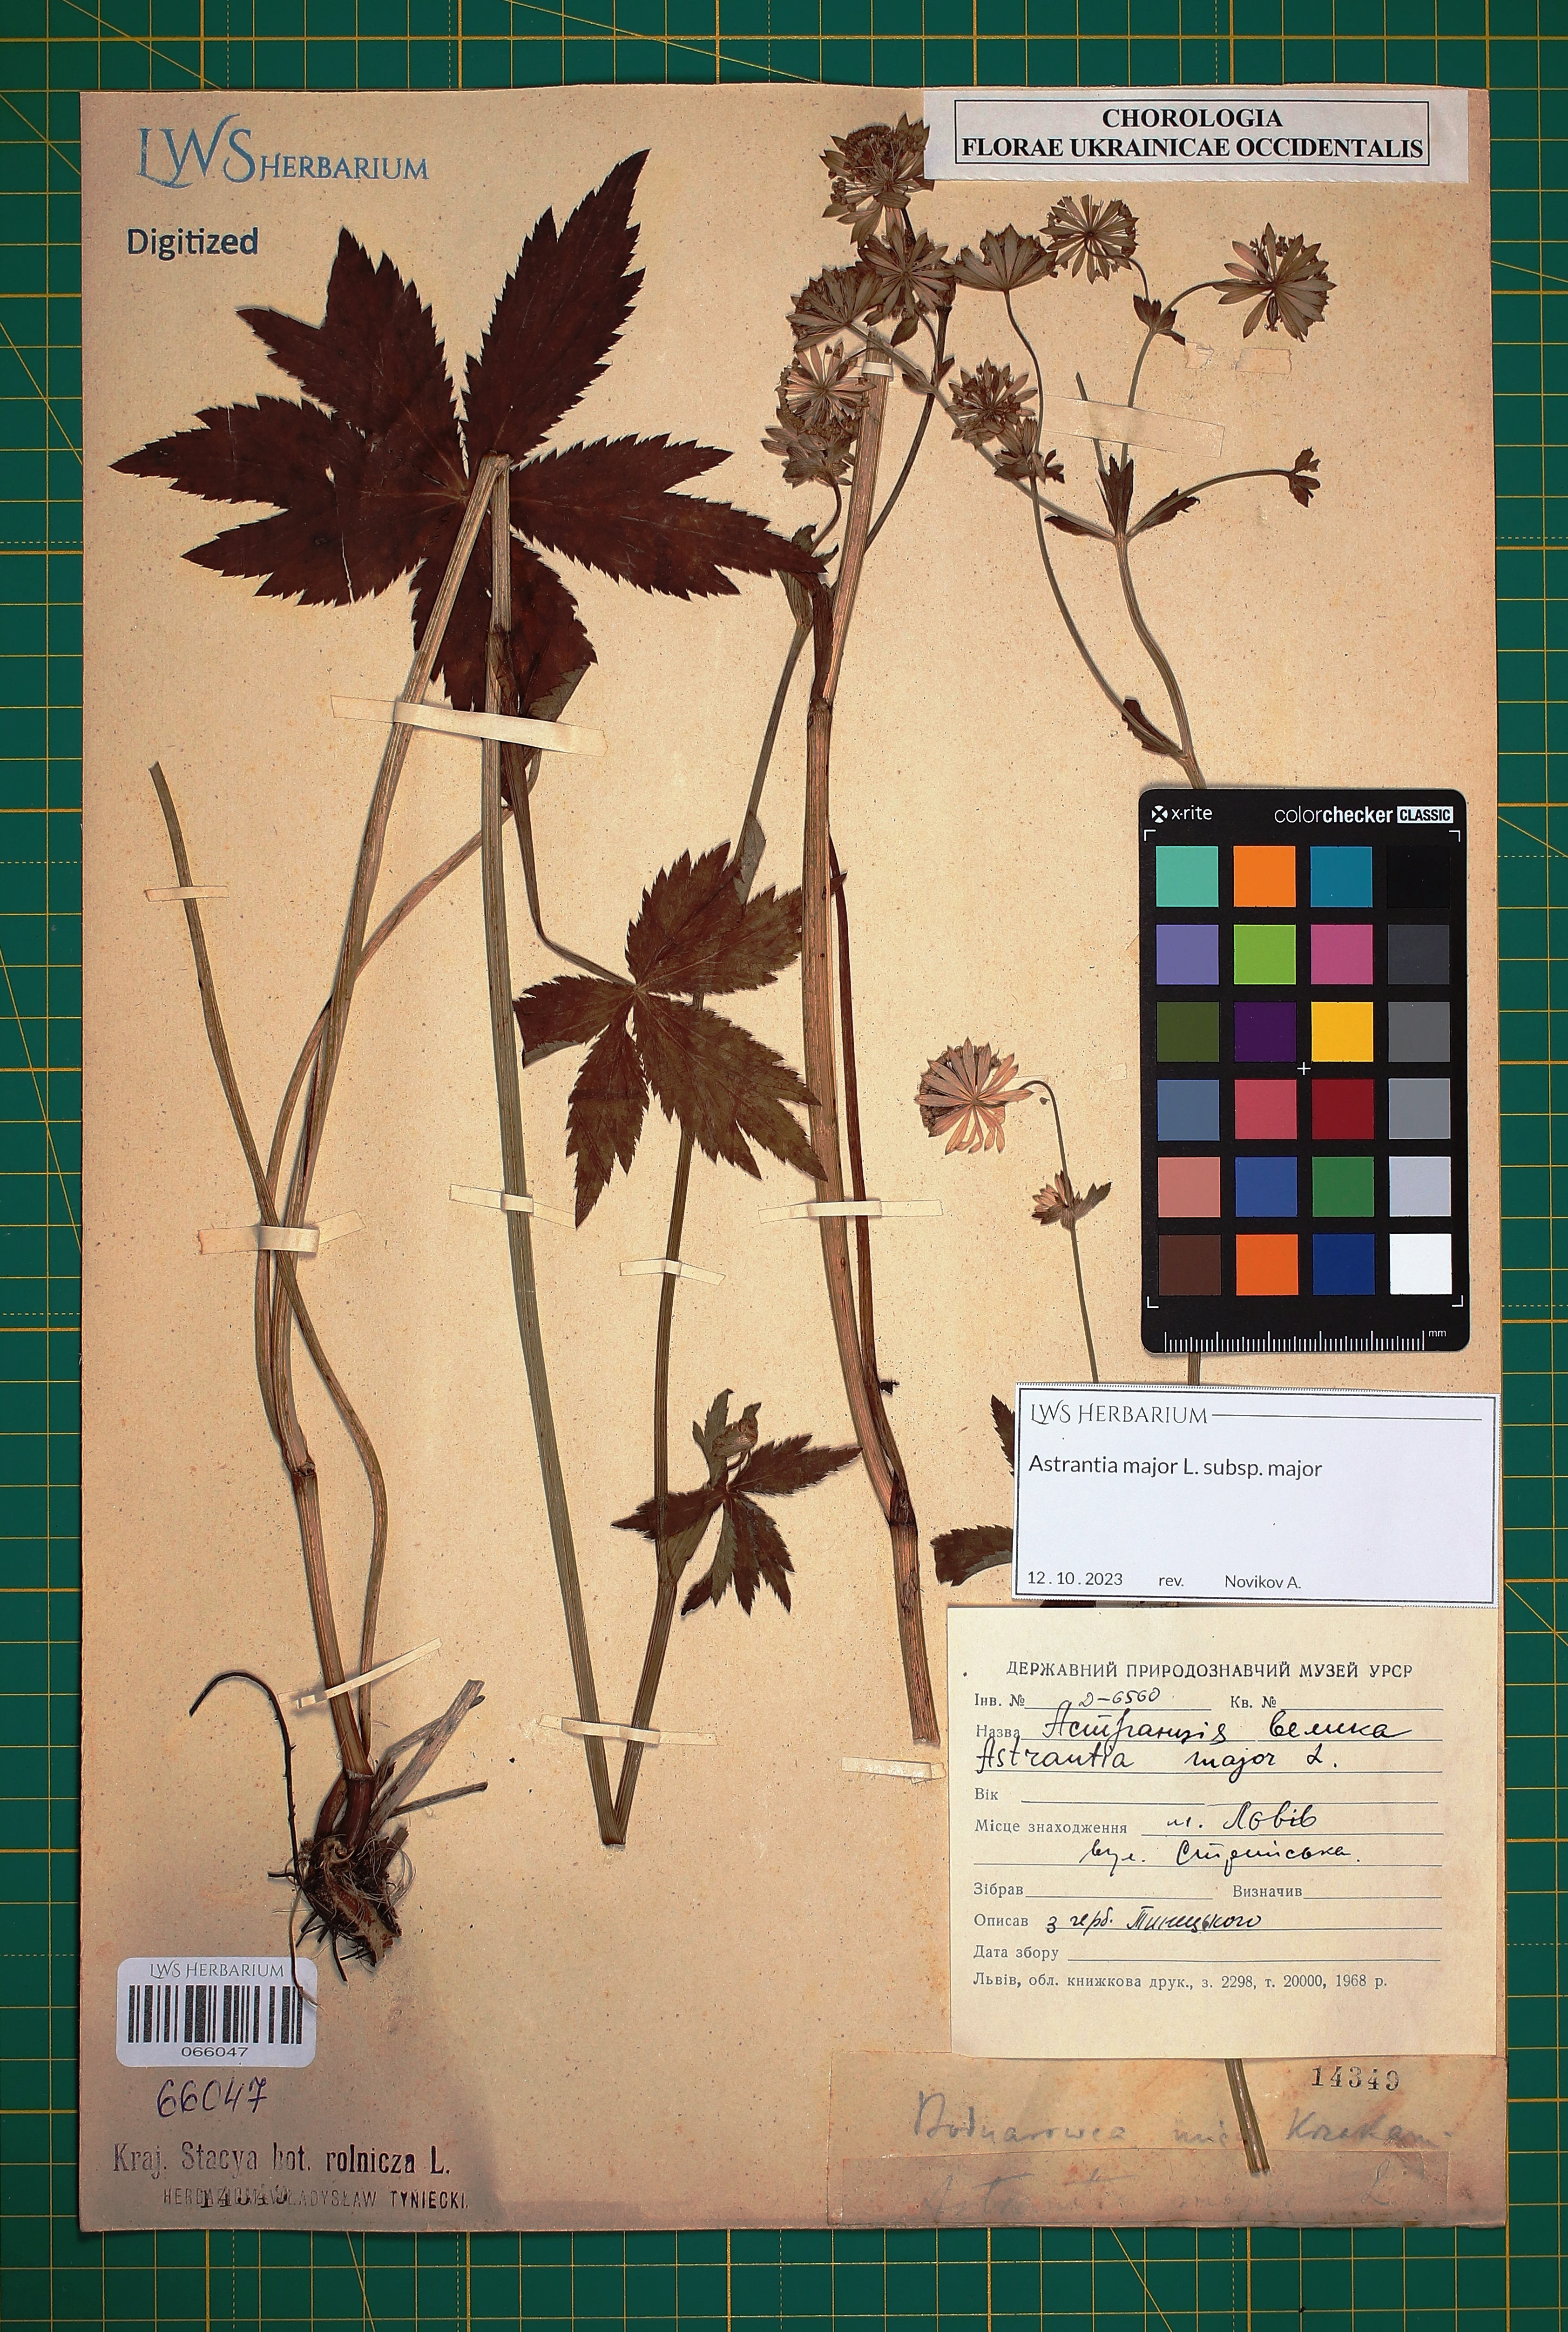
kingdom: Plantae
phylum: Tracheophyta
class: Magnoliopsida
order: Apiales
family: Apiaceae
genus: Astrantia
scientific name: Astrantia major
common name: Greater masterwort
